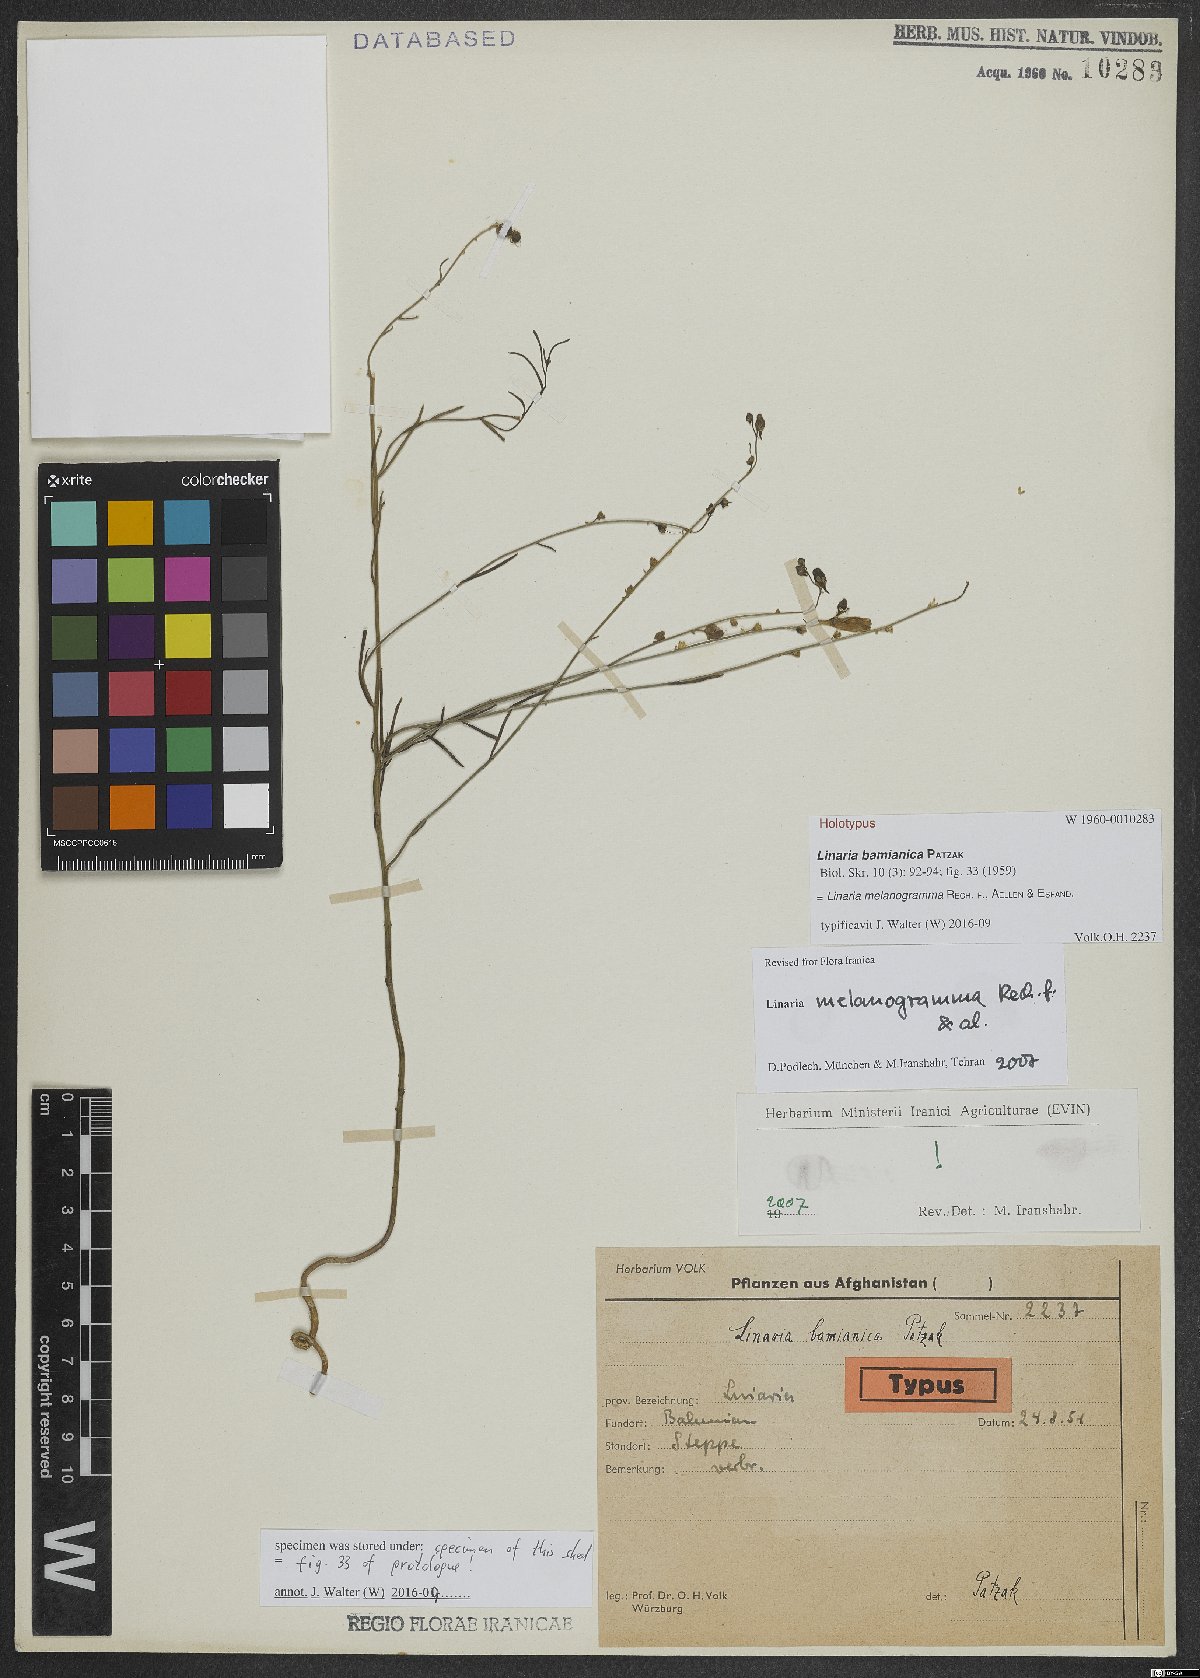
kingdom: Plantae
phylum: Tracheophyta
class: Magnoliopsida
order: Lamiales
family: Plantaginaceae
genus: Linaria
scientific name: Linaria melanogramma
